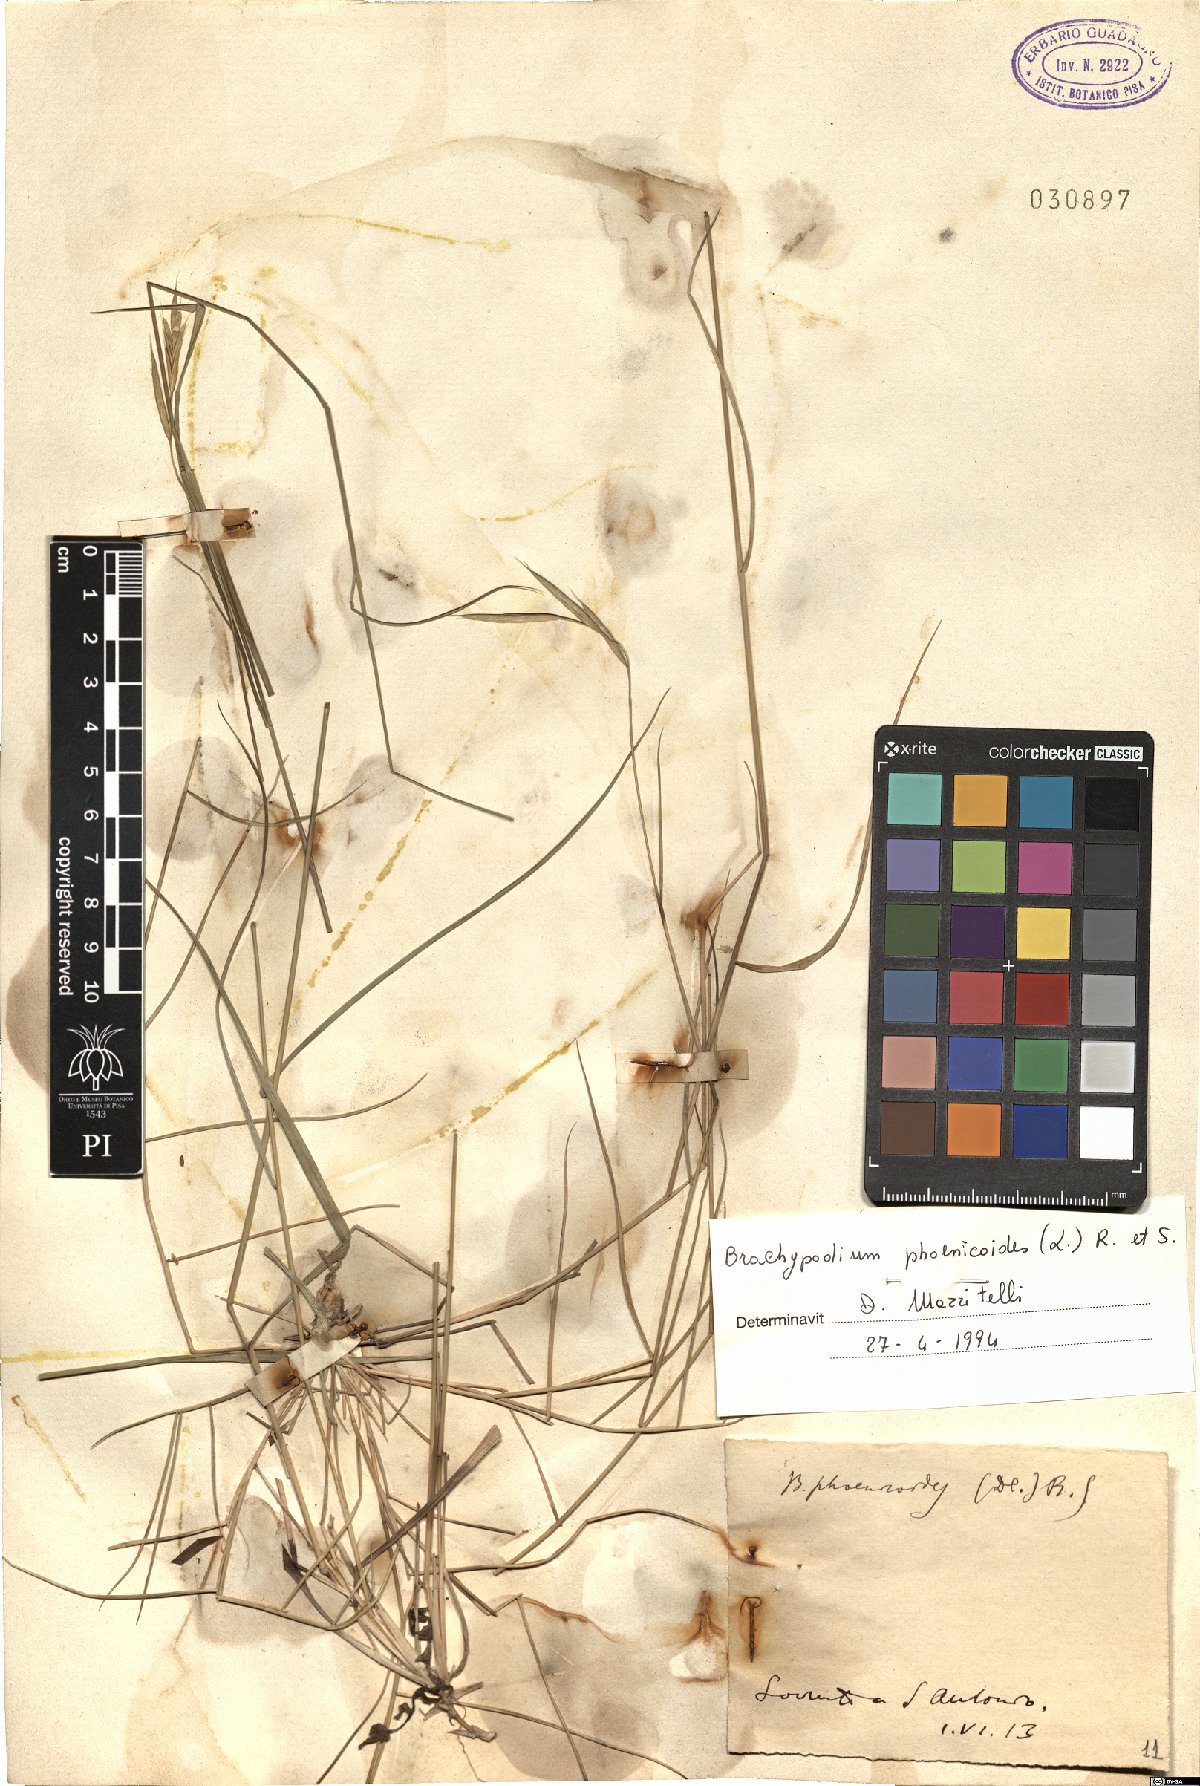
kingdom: Plantae
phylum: Tracheophyta
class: Liliopsida
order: Poales
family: Poaceae
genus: Brachypodium
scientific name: Brachypodium phoenicoides
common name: Thinleaf false brome
